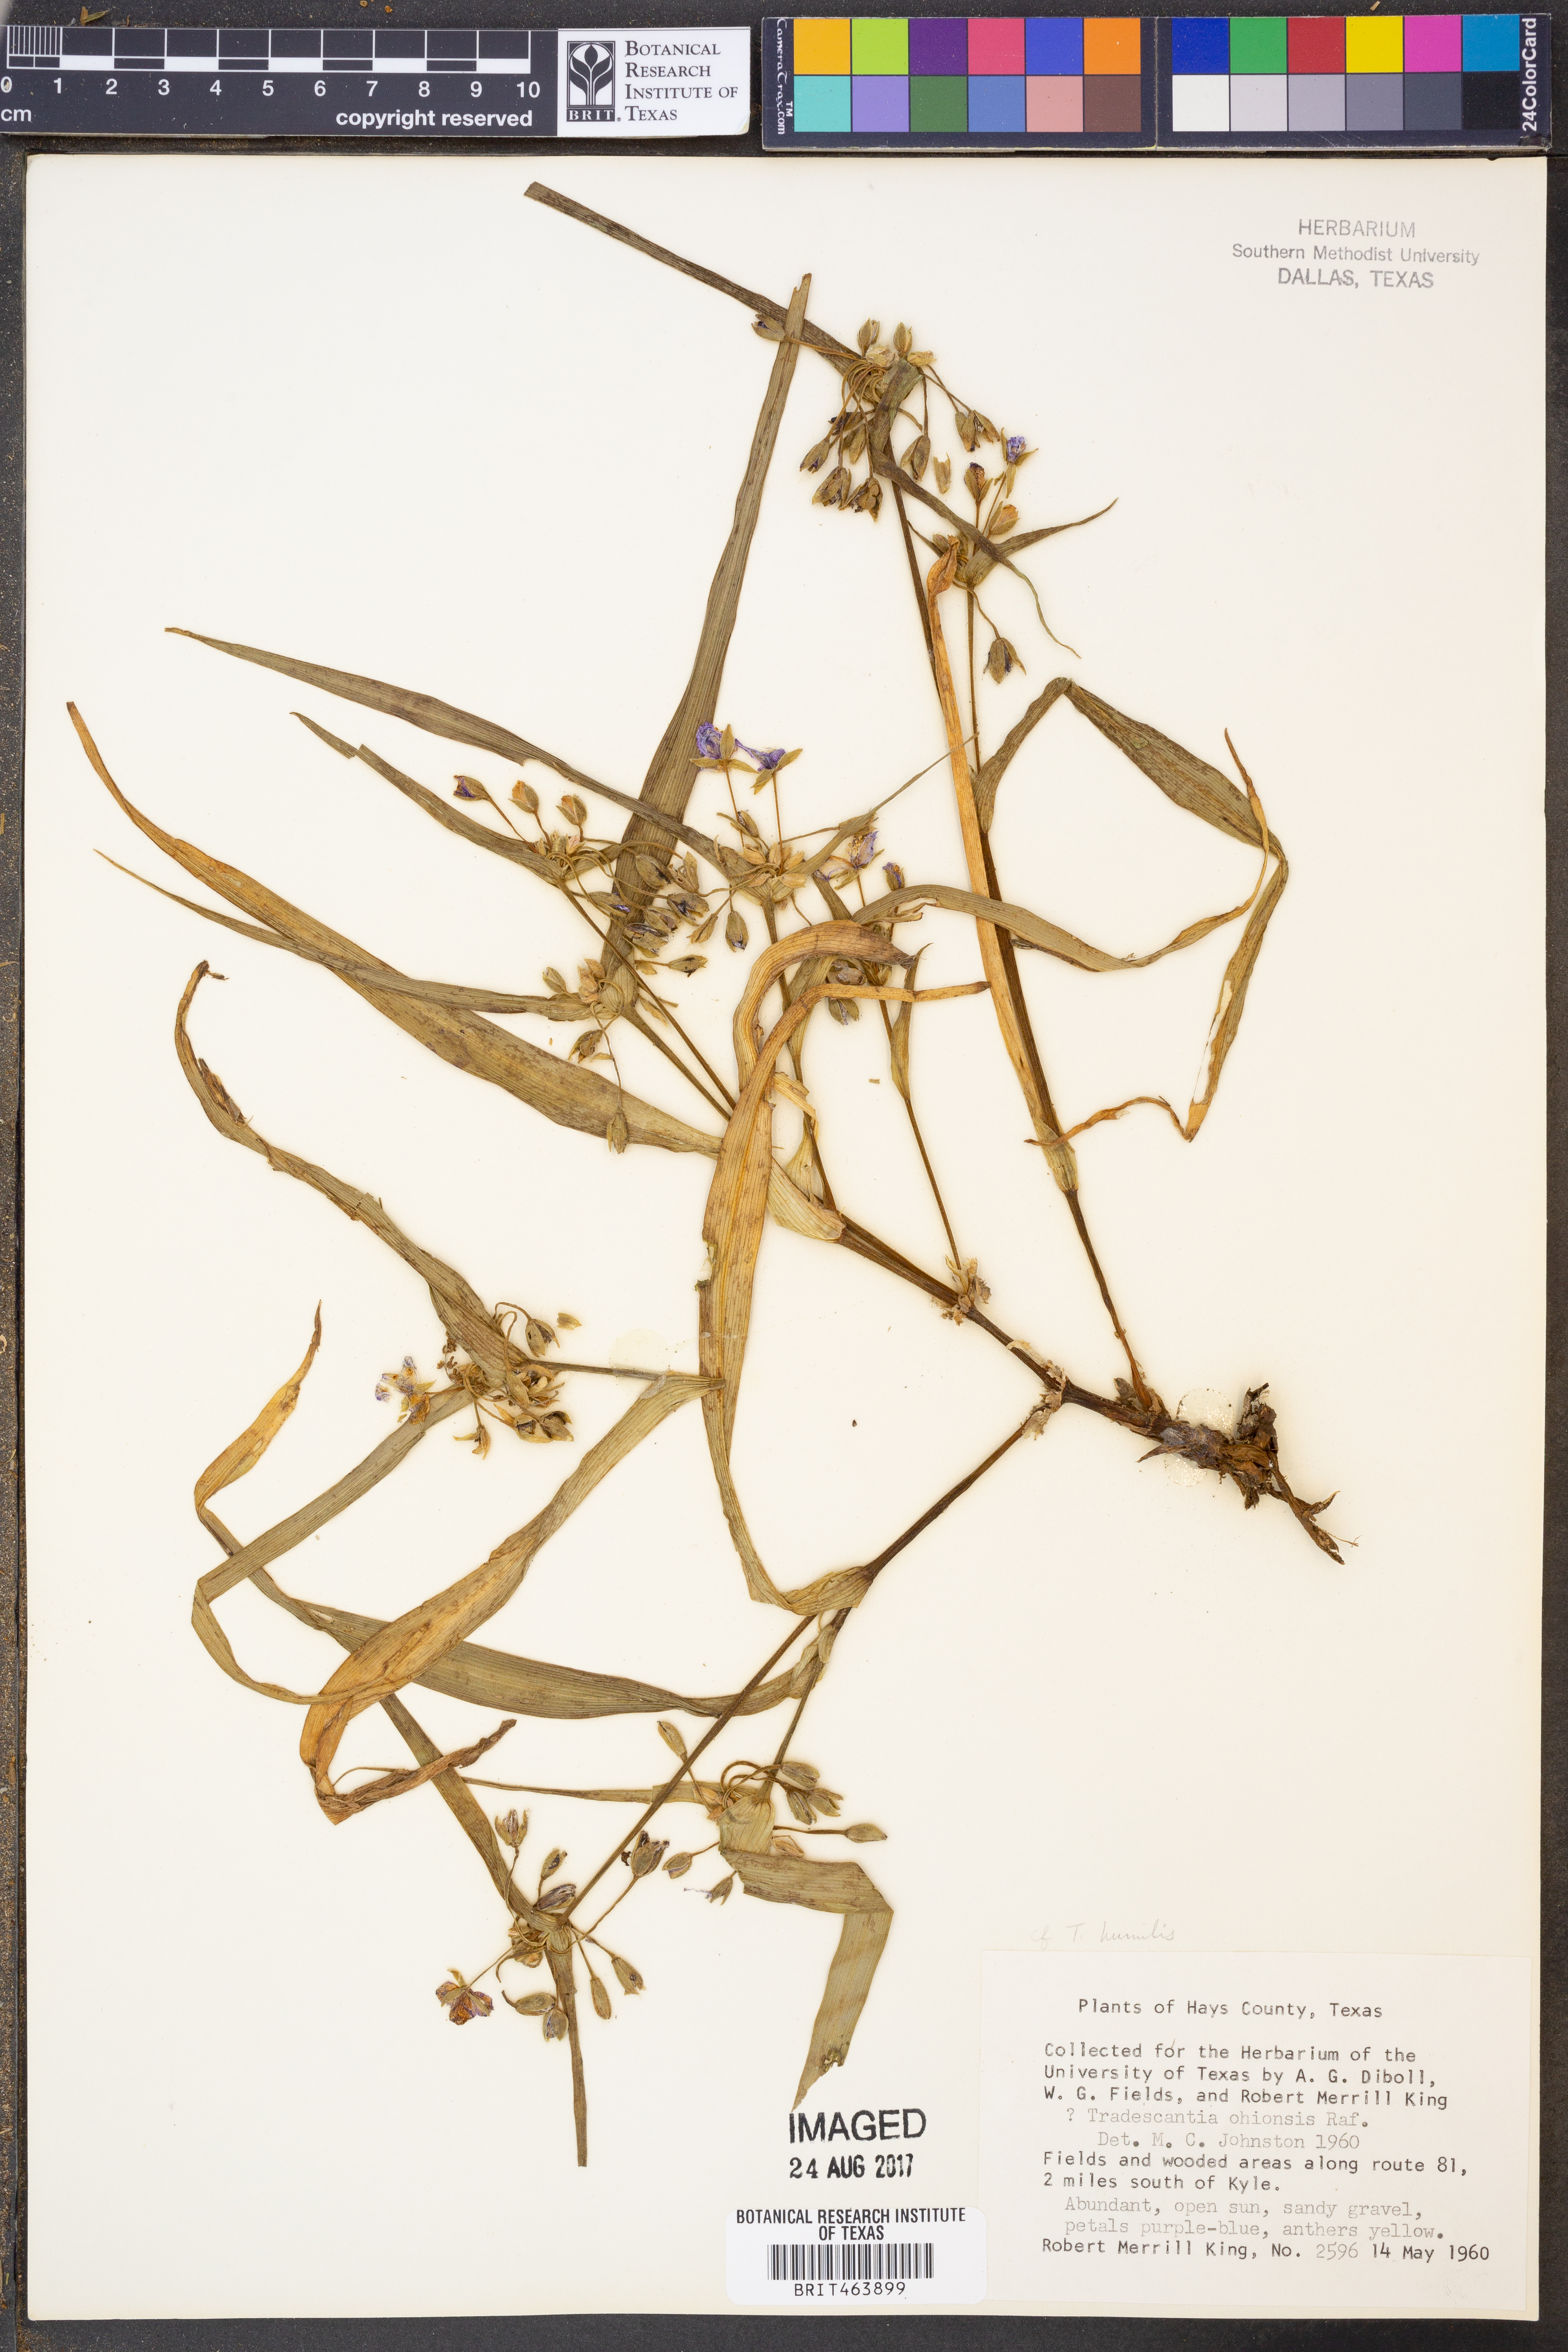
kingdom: Plantae
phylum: Tracheophyta
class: Liliopsida
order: Commelinales
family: Commelinaceae
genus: Tradescantia
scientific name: Tradescantia ohiensis
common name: Ohio spiderwort
